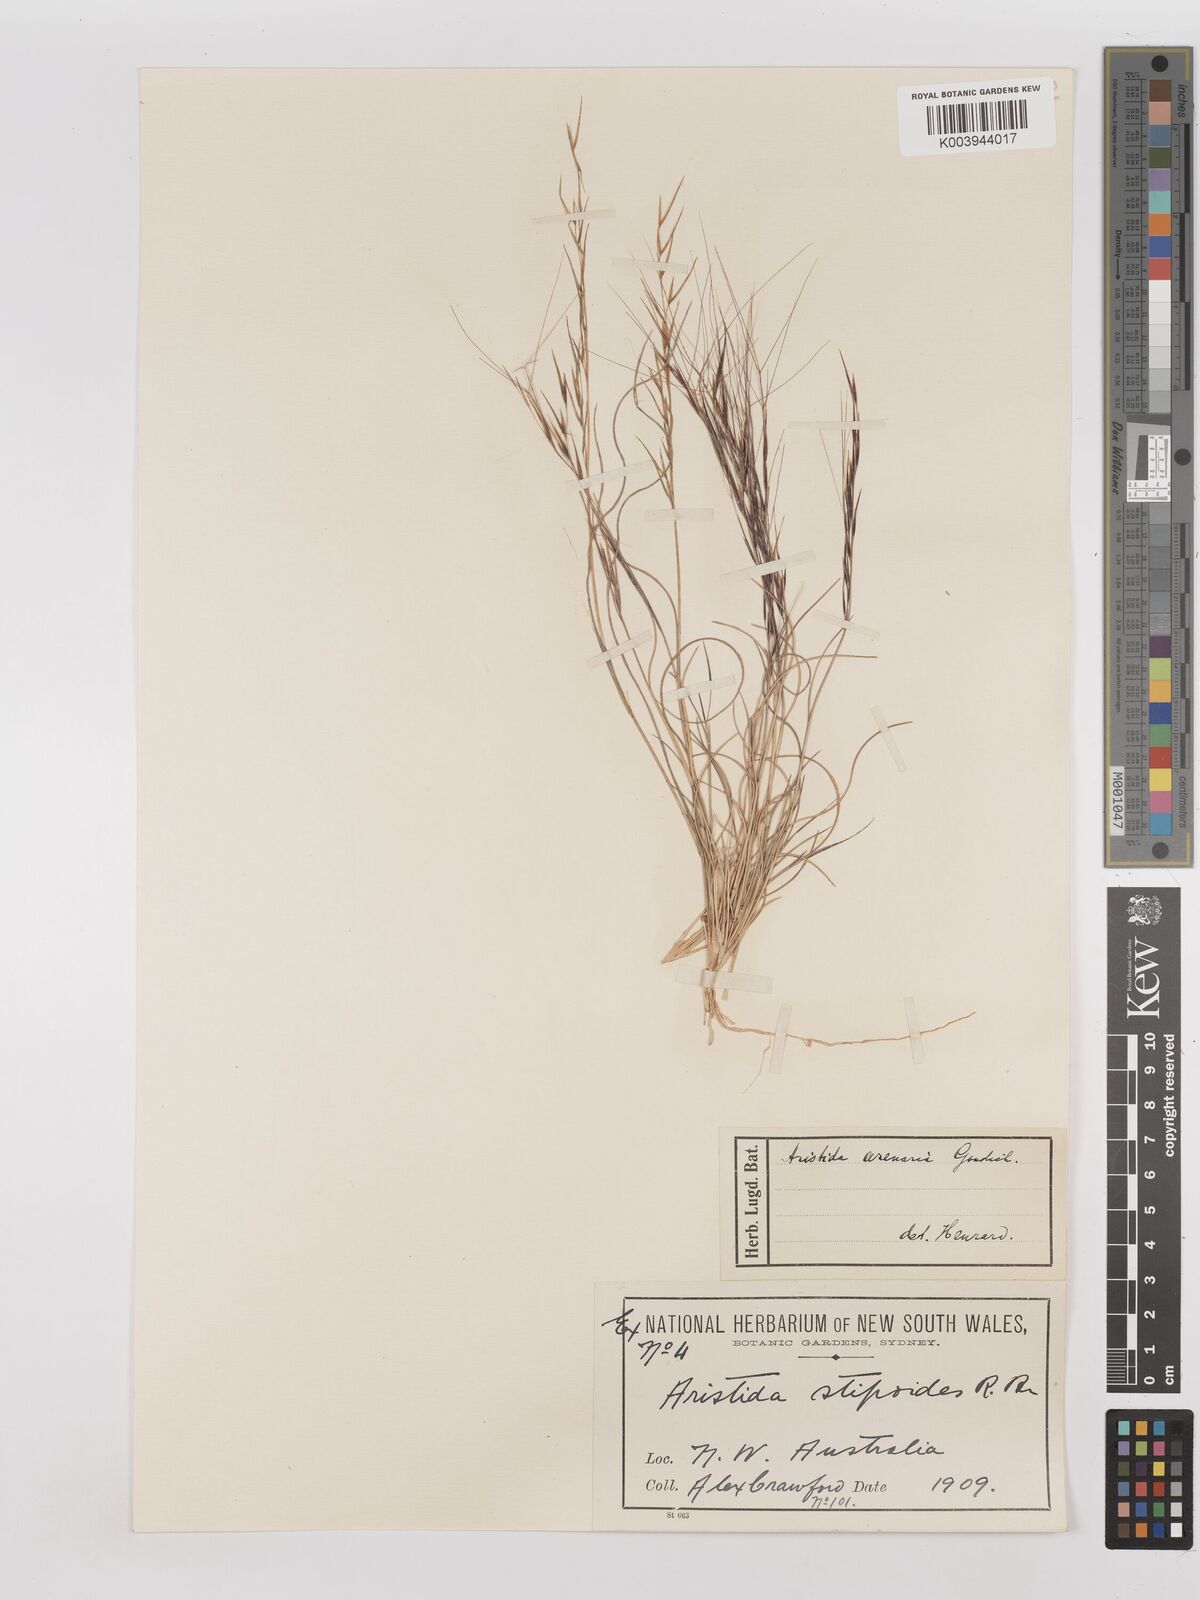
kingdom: Plantae
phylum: Tracheophyta
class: Liliopsida
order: Poales
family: Poaceae
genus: Aristida
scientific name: Aristida contorta
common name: Bunch kerosene grass
